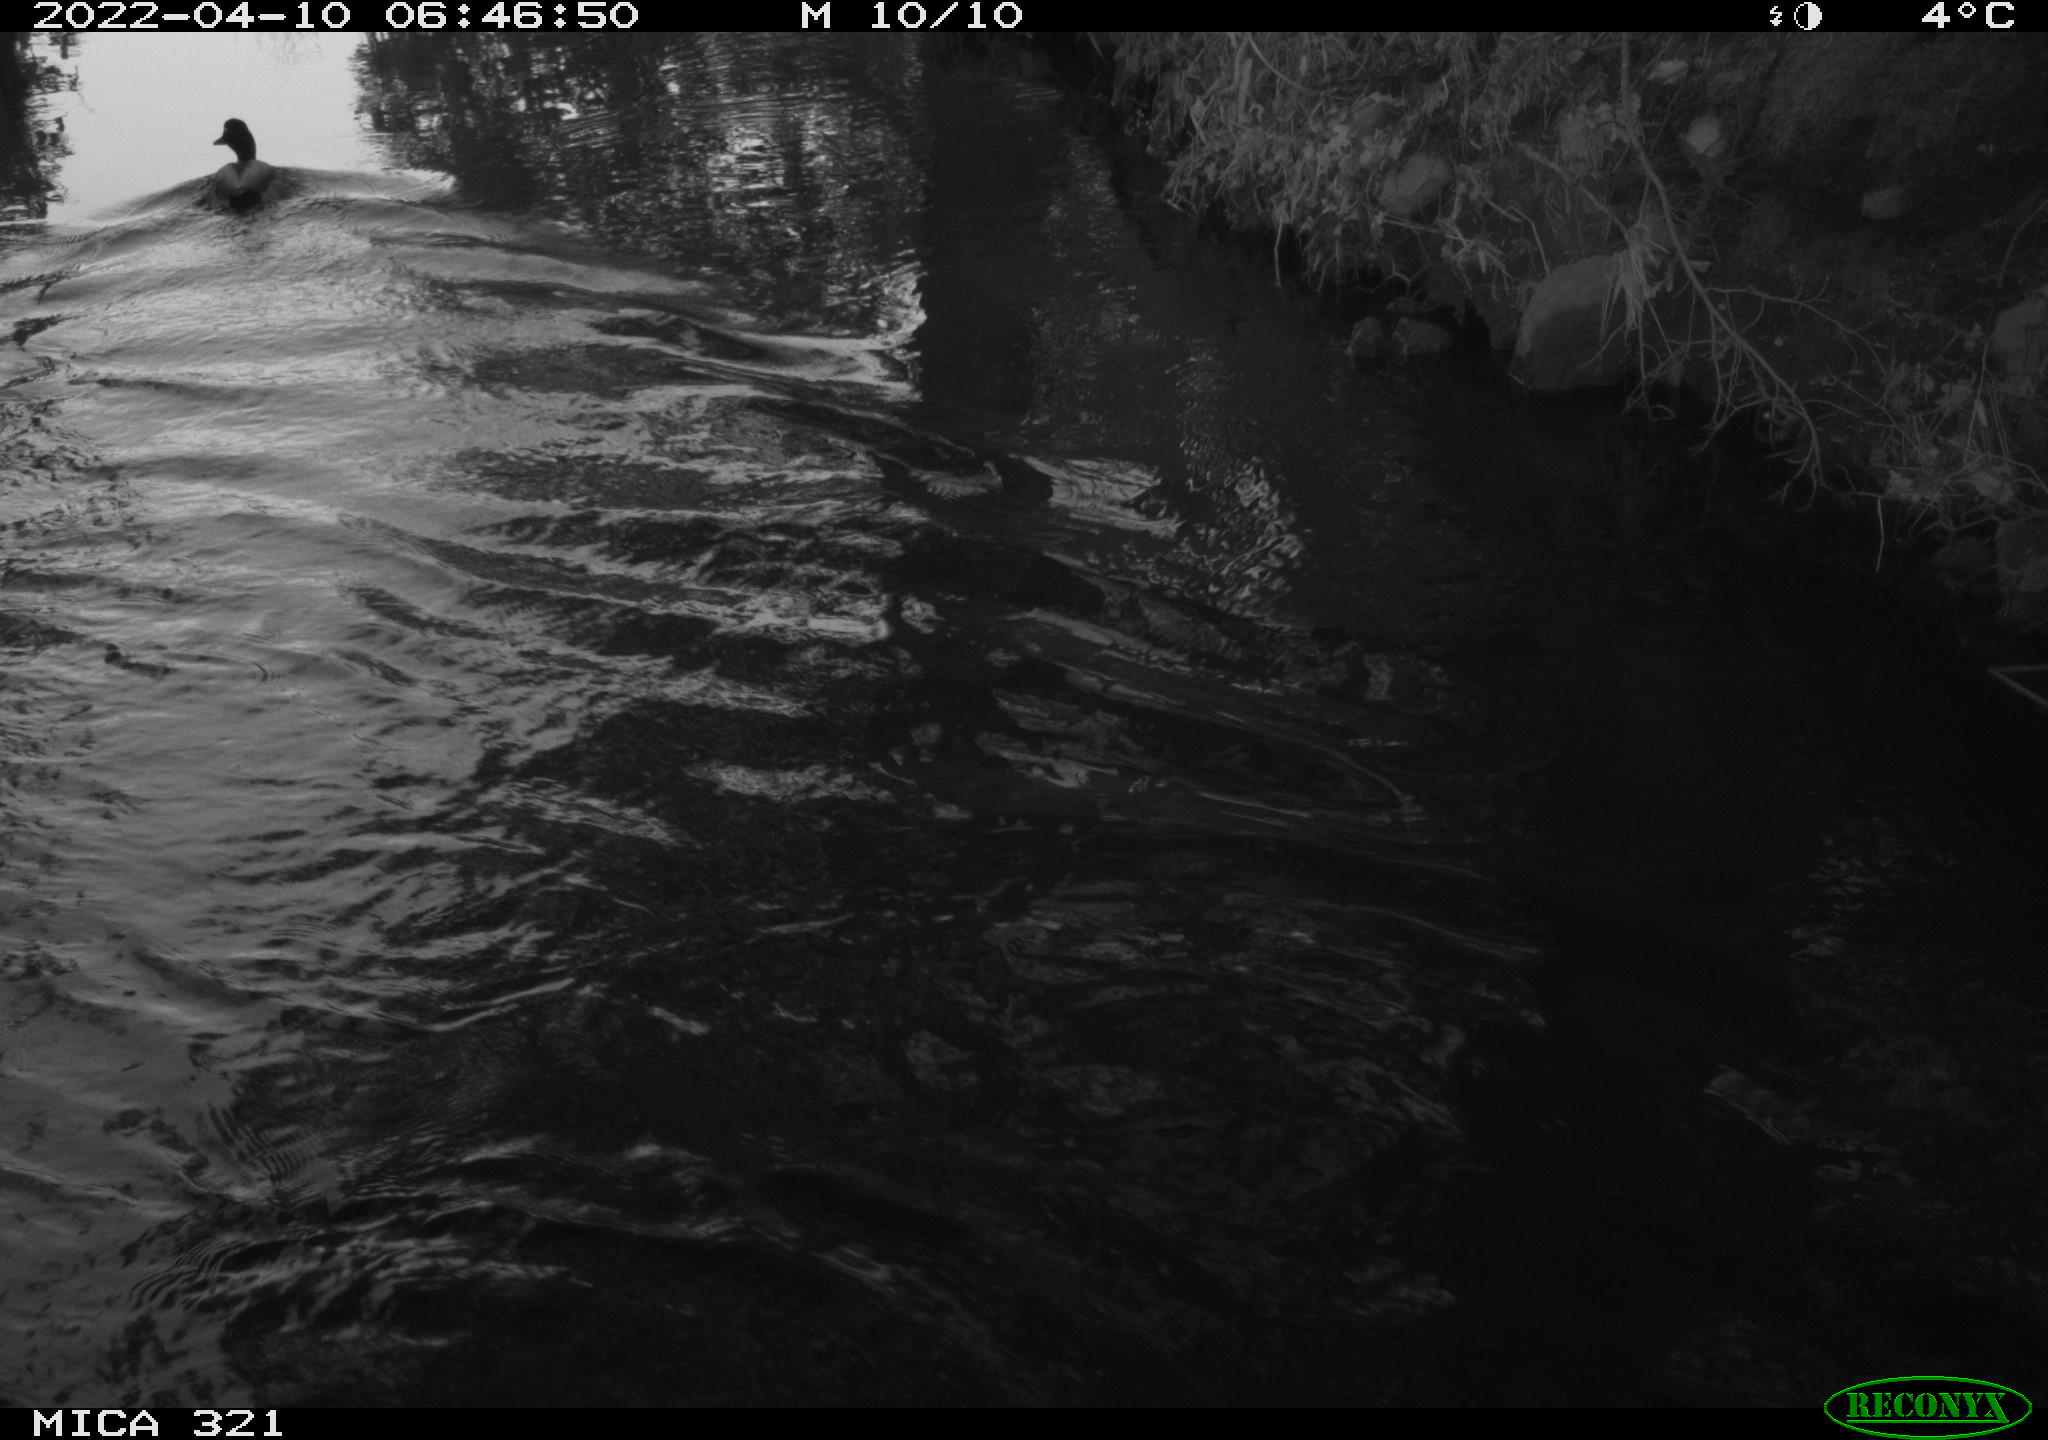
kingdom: Animalia
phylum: Chordata
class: Aves
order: Anseriformes
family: Anatidae
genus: Anas
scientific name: Anas platyrhynchos
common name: Mallard
